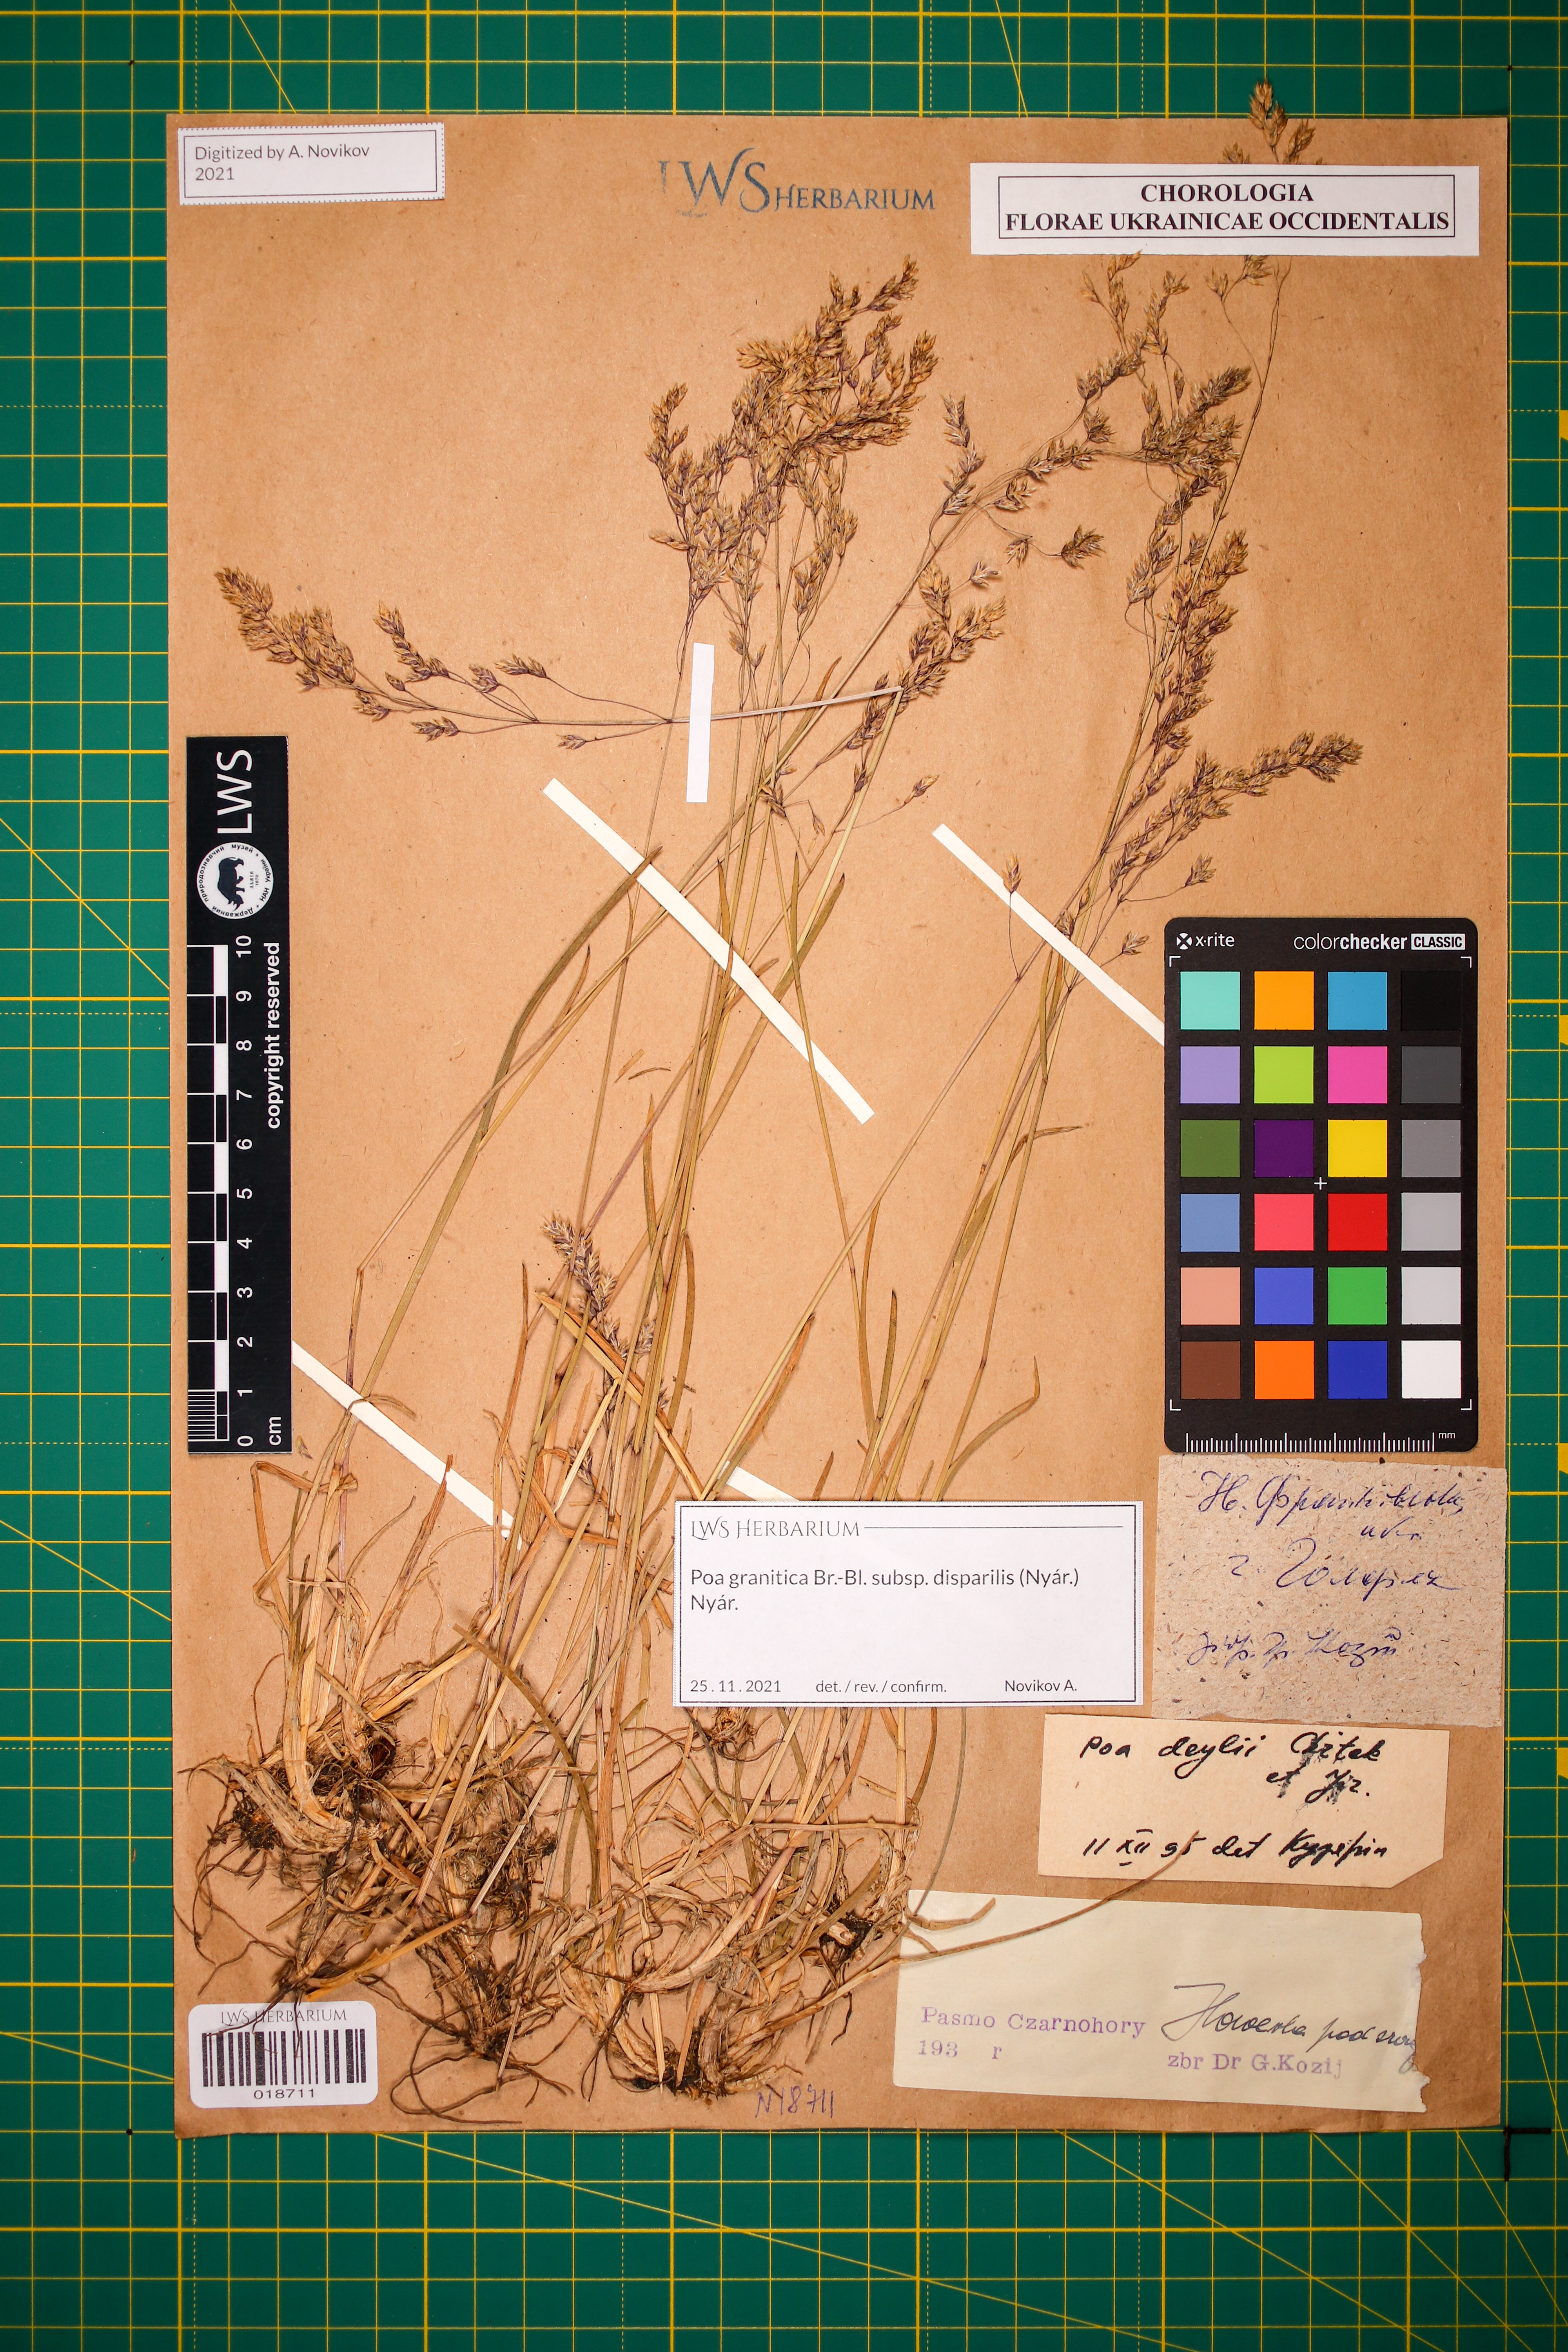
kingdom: Plantae
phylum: Tracheophyta
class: Liliopsida
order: Poales
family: Poaceae
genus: Poa
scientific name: Poa granitica
